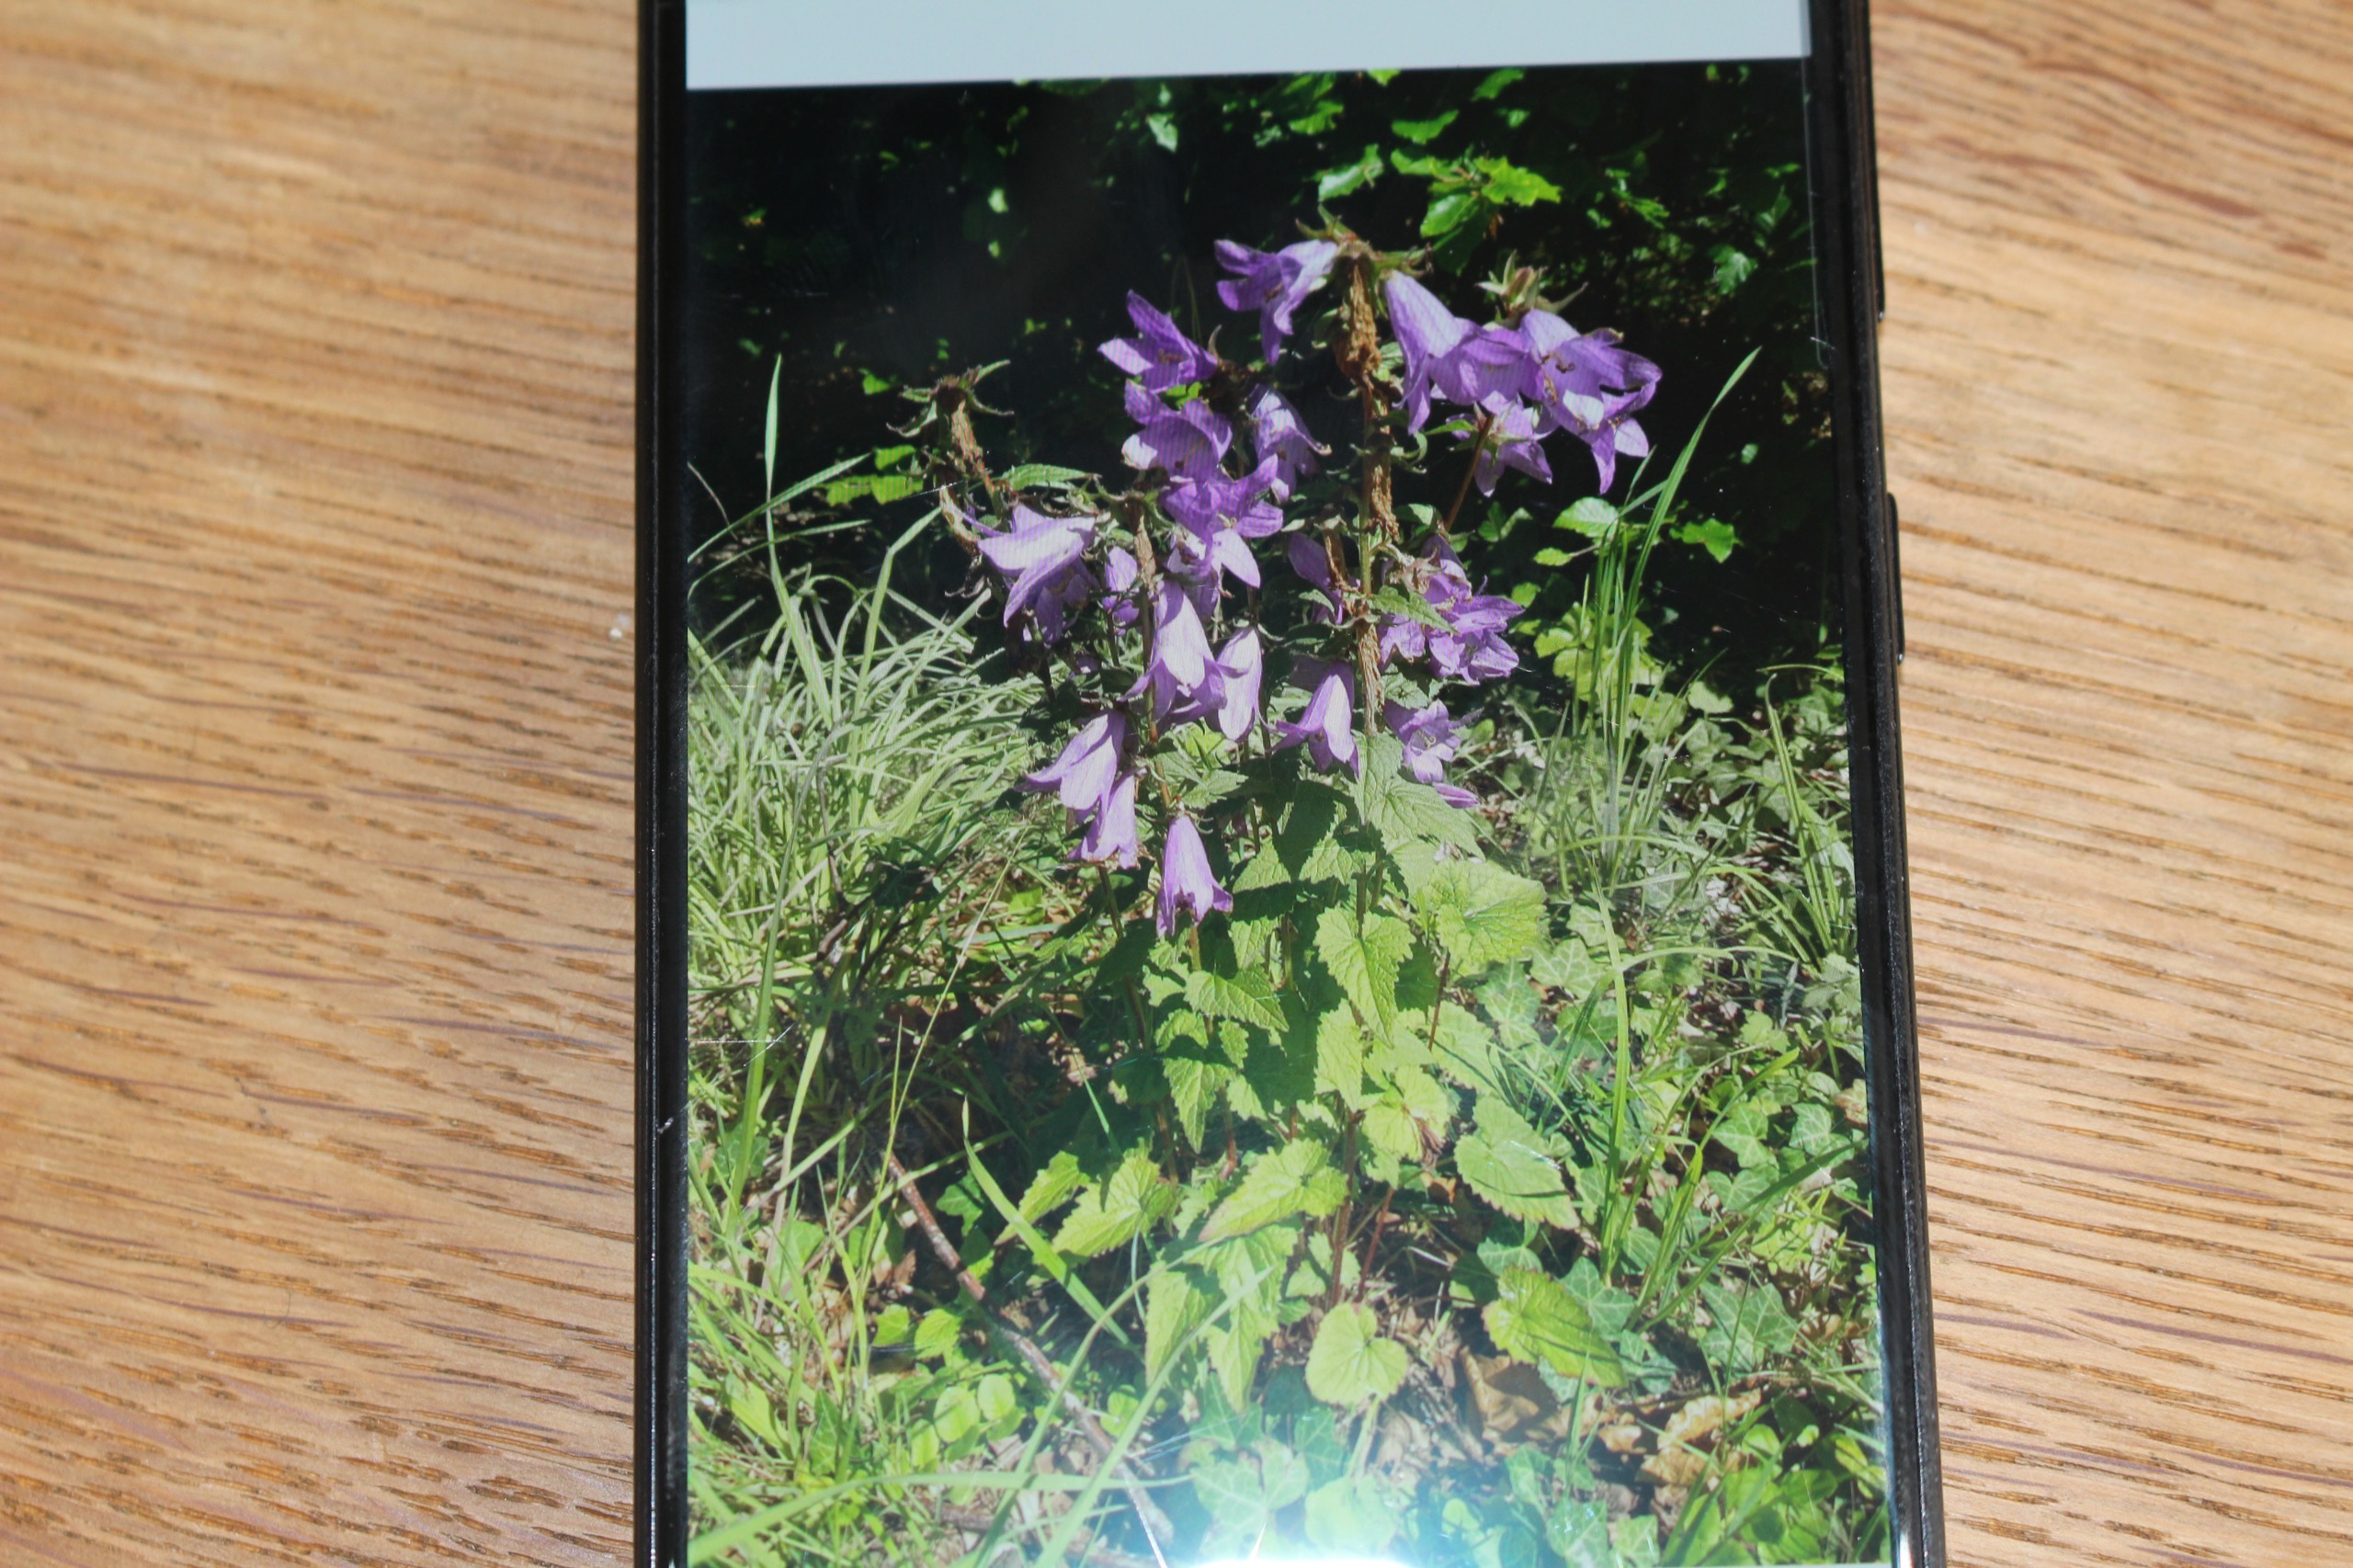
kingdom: Plantae
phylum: Tracheophyta
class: Magnoliopsida
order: Asterales
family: Campanulaceae
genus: Campanula
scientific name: Campanula trachelium
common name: Nælde-klokke
